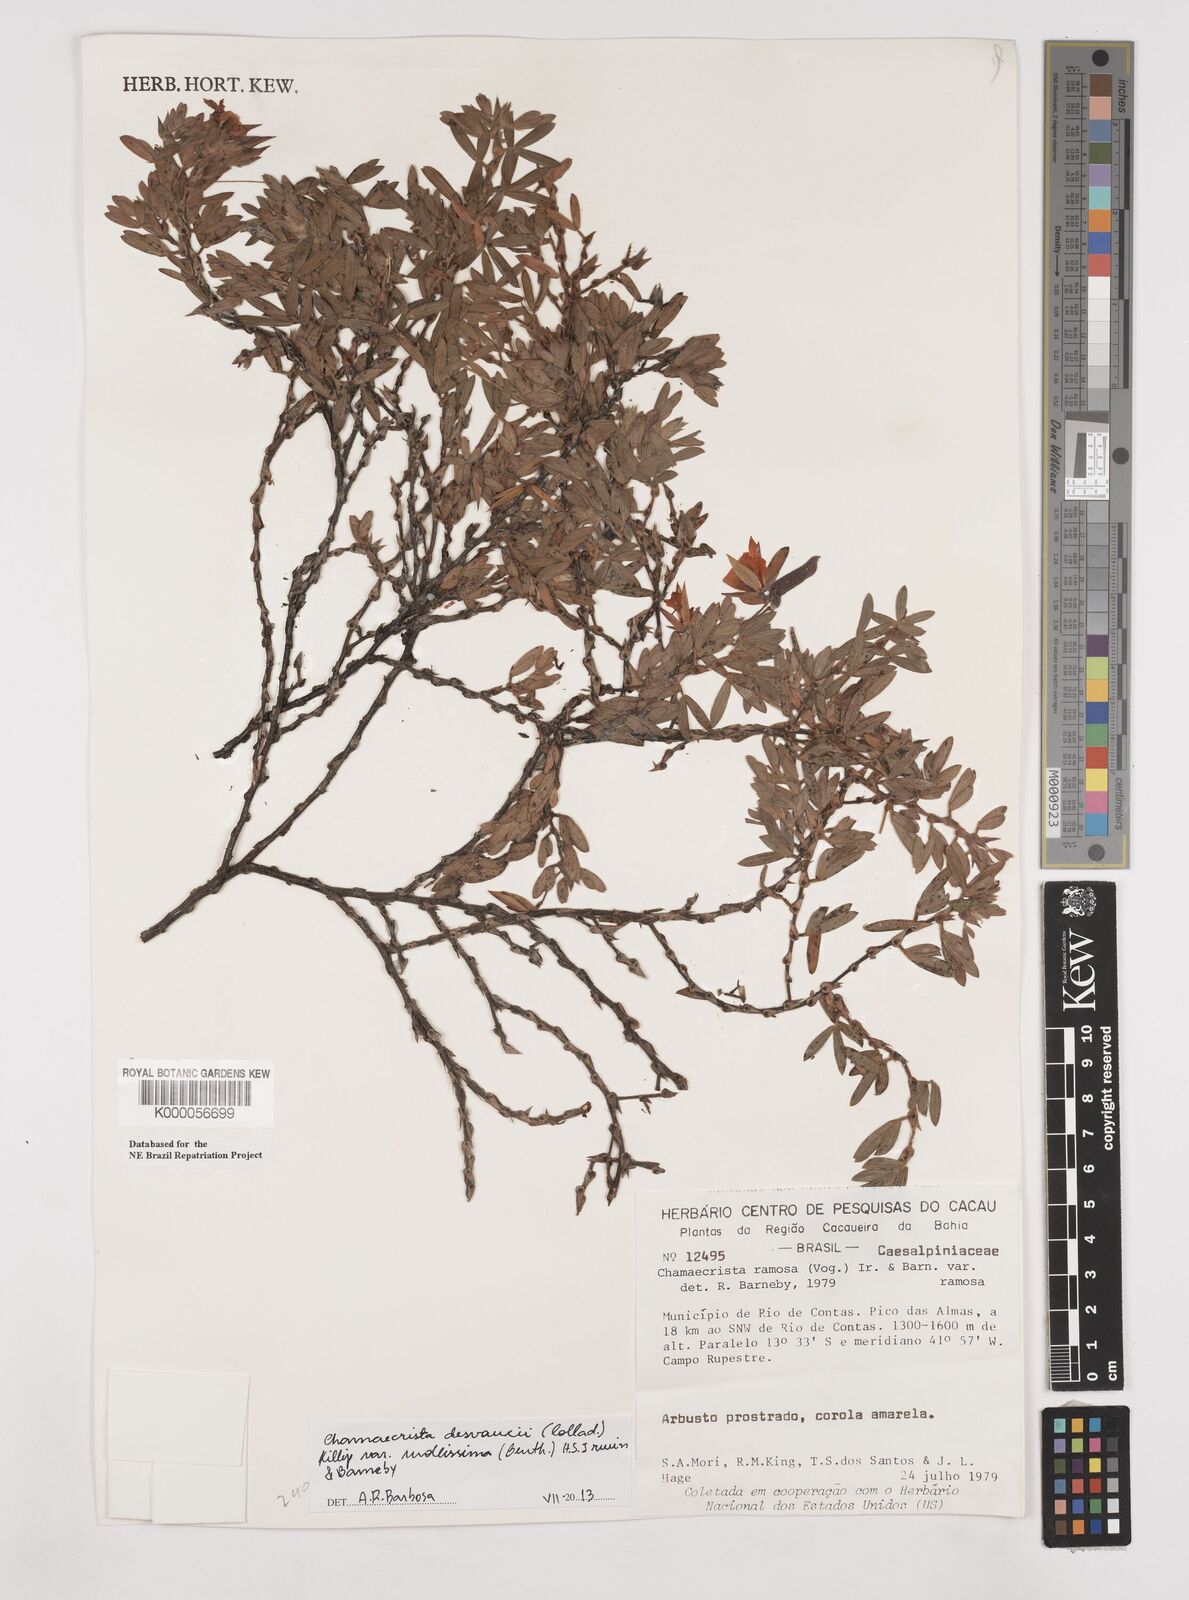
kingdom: Plantae
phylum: Tracheophyta
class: Magnoliopsida
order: Fabales
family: Fabaceae
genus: Chamaecrista
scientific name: Chamaecrista ramosa
